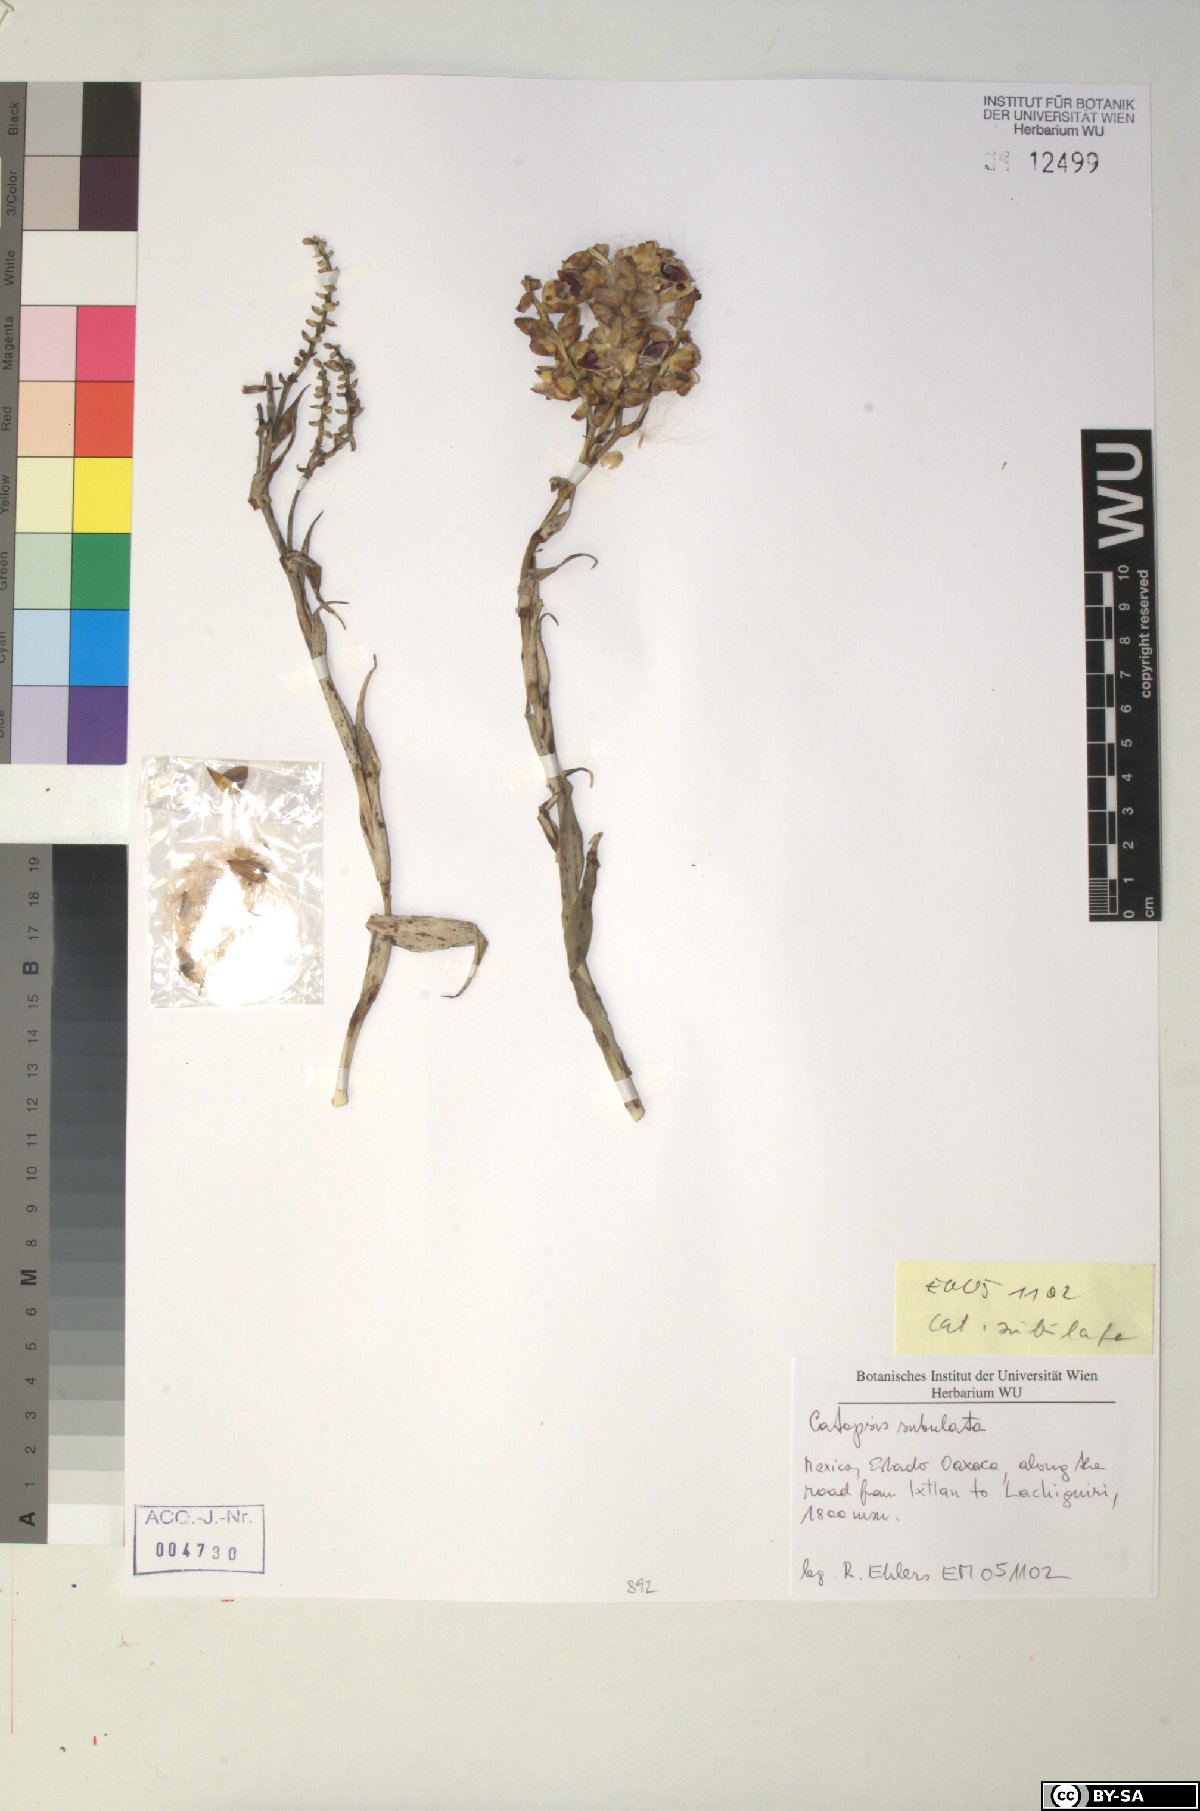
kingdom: Plantae
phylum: Tracheophyta
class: Liliopsida
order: Poales
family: Bromeliaceae
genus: Catopsis
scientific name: Catopsis subulata
